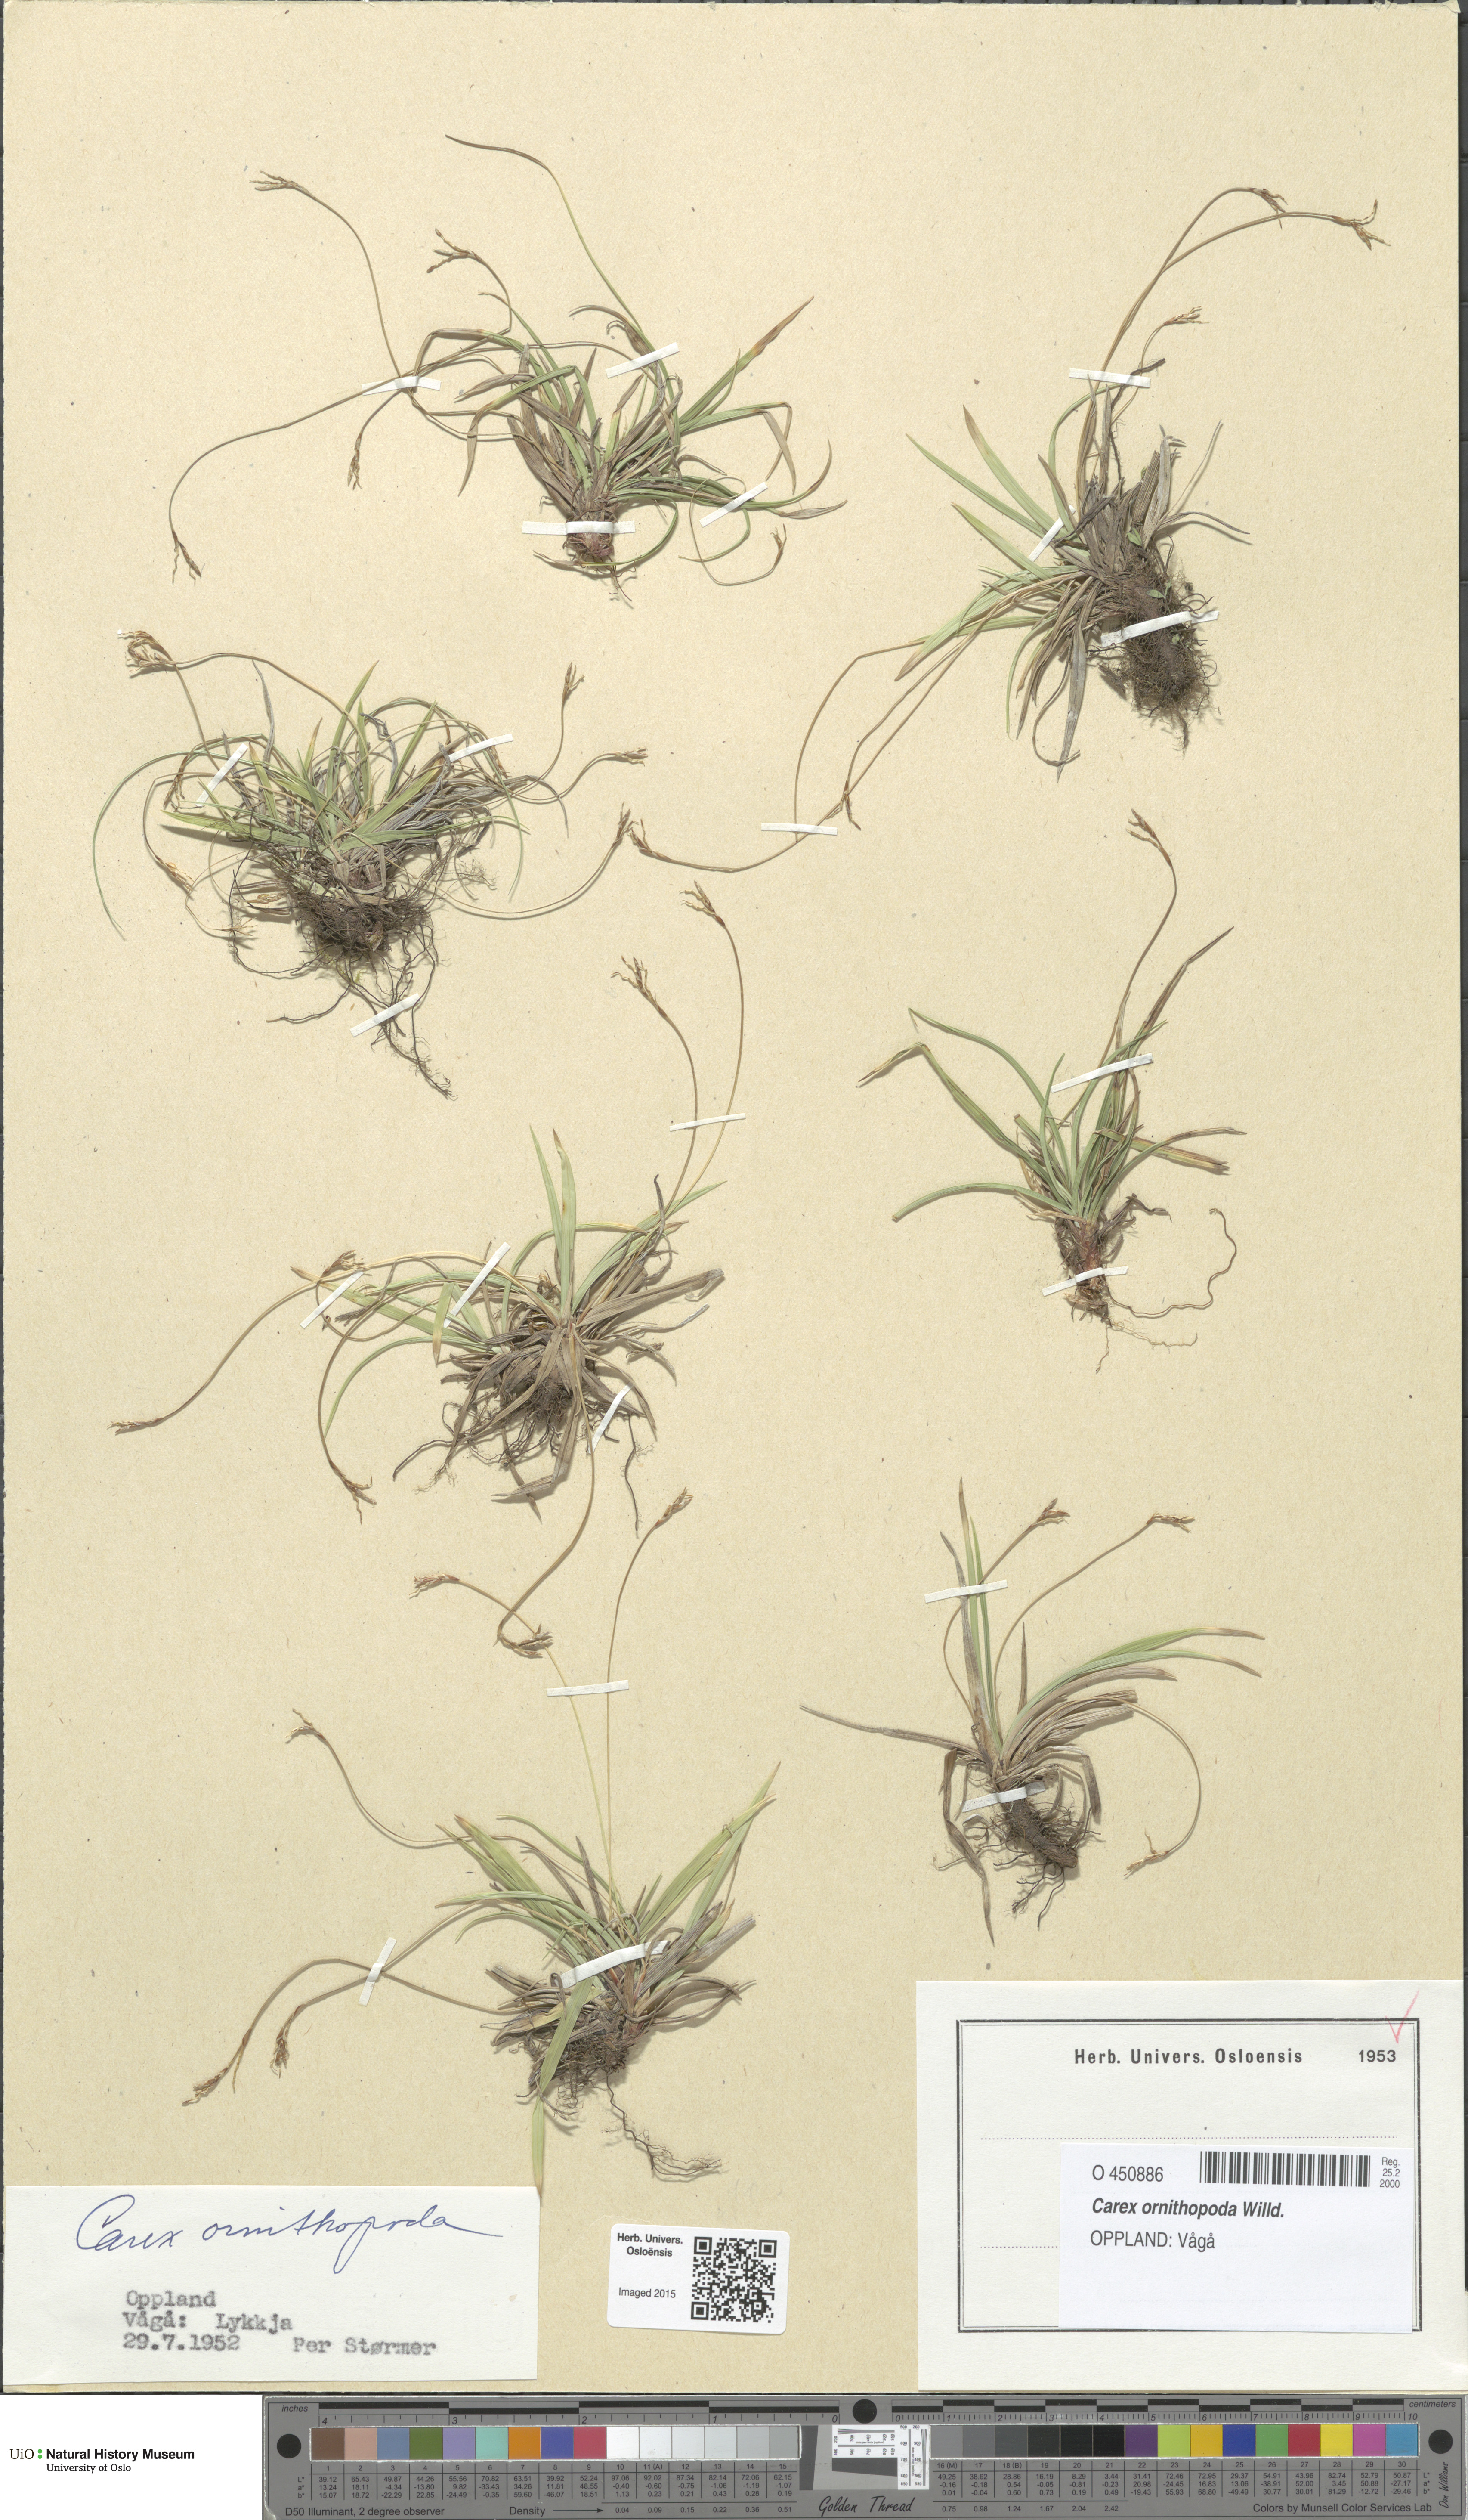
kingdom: Plantae
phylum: Tracheophyta
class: Liliopsida
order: Poales
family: Cyperaceae
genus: Carex
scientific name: Carex ornithopoda
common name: Bird's-foot sedge
